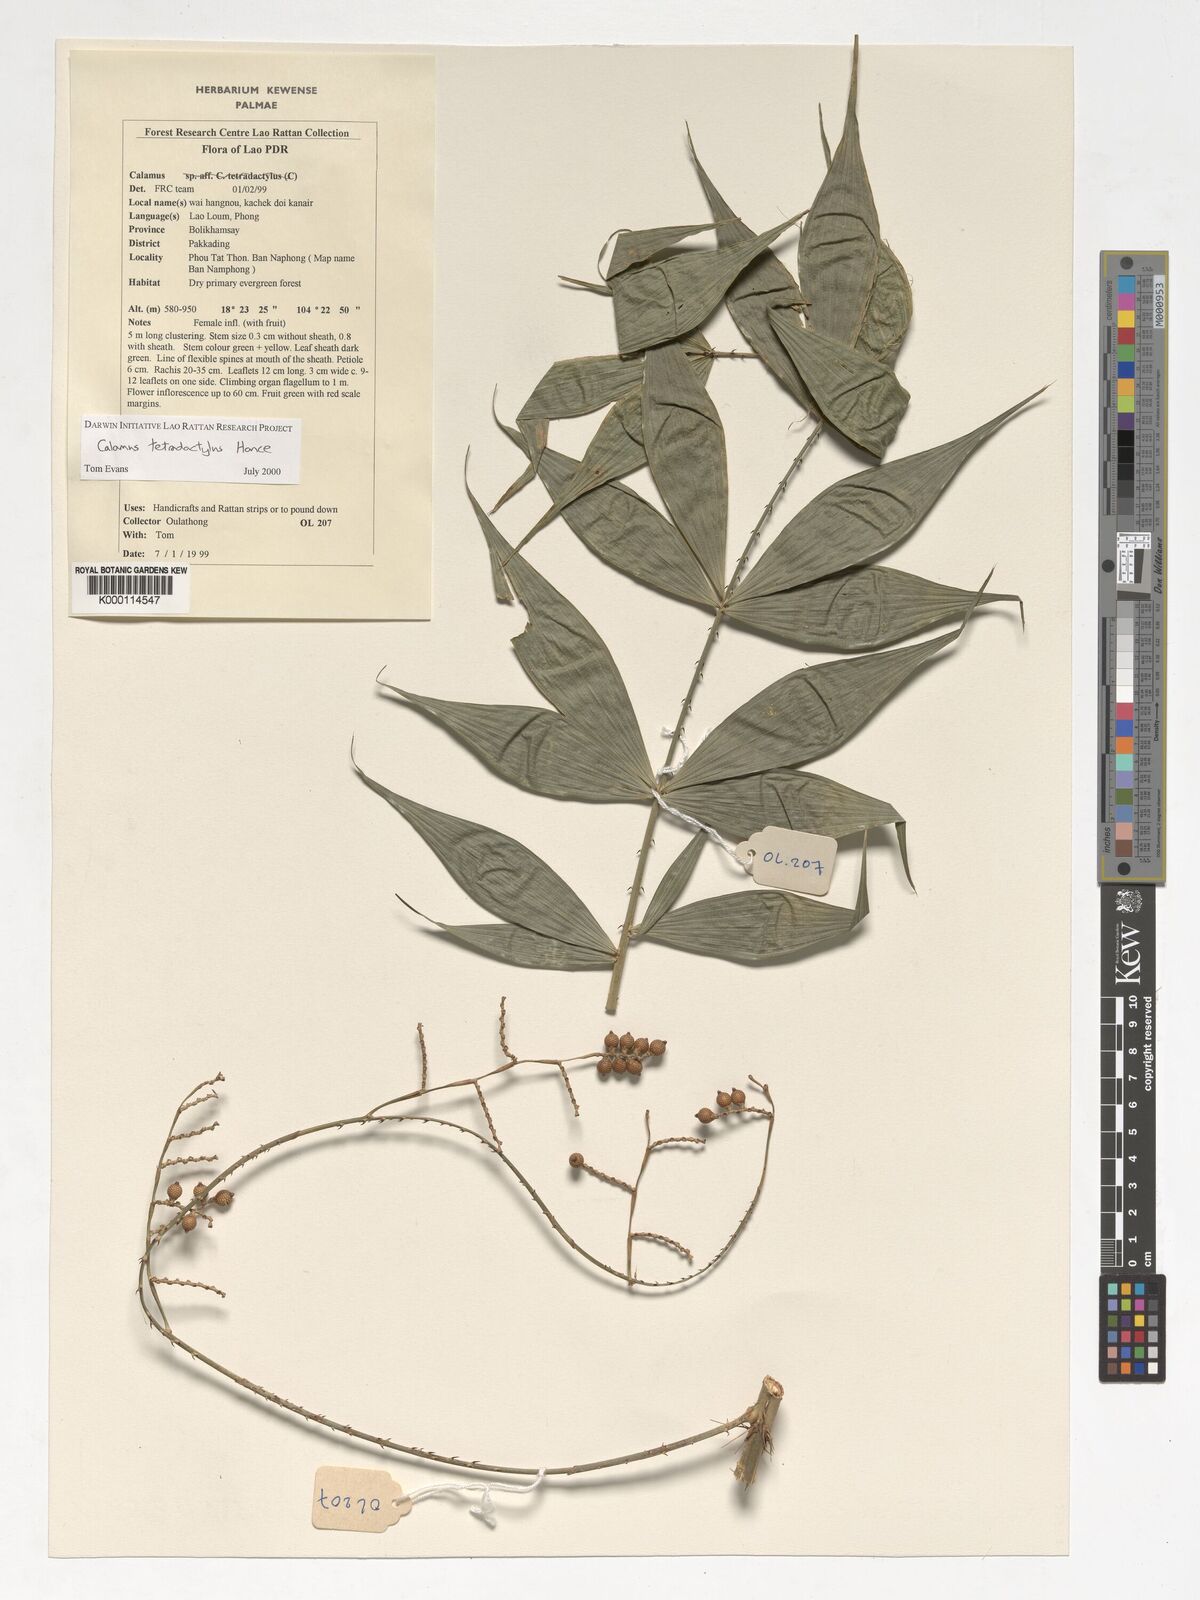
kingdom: Plantae
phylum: Tracheophyta
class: Liliopsida
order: Arecales
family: Arecaceae
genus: Calamus
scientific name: Calamus tetradactylus
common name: White rattan
